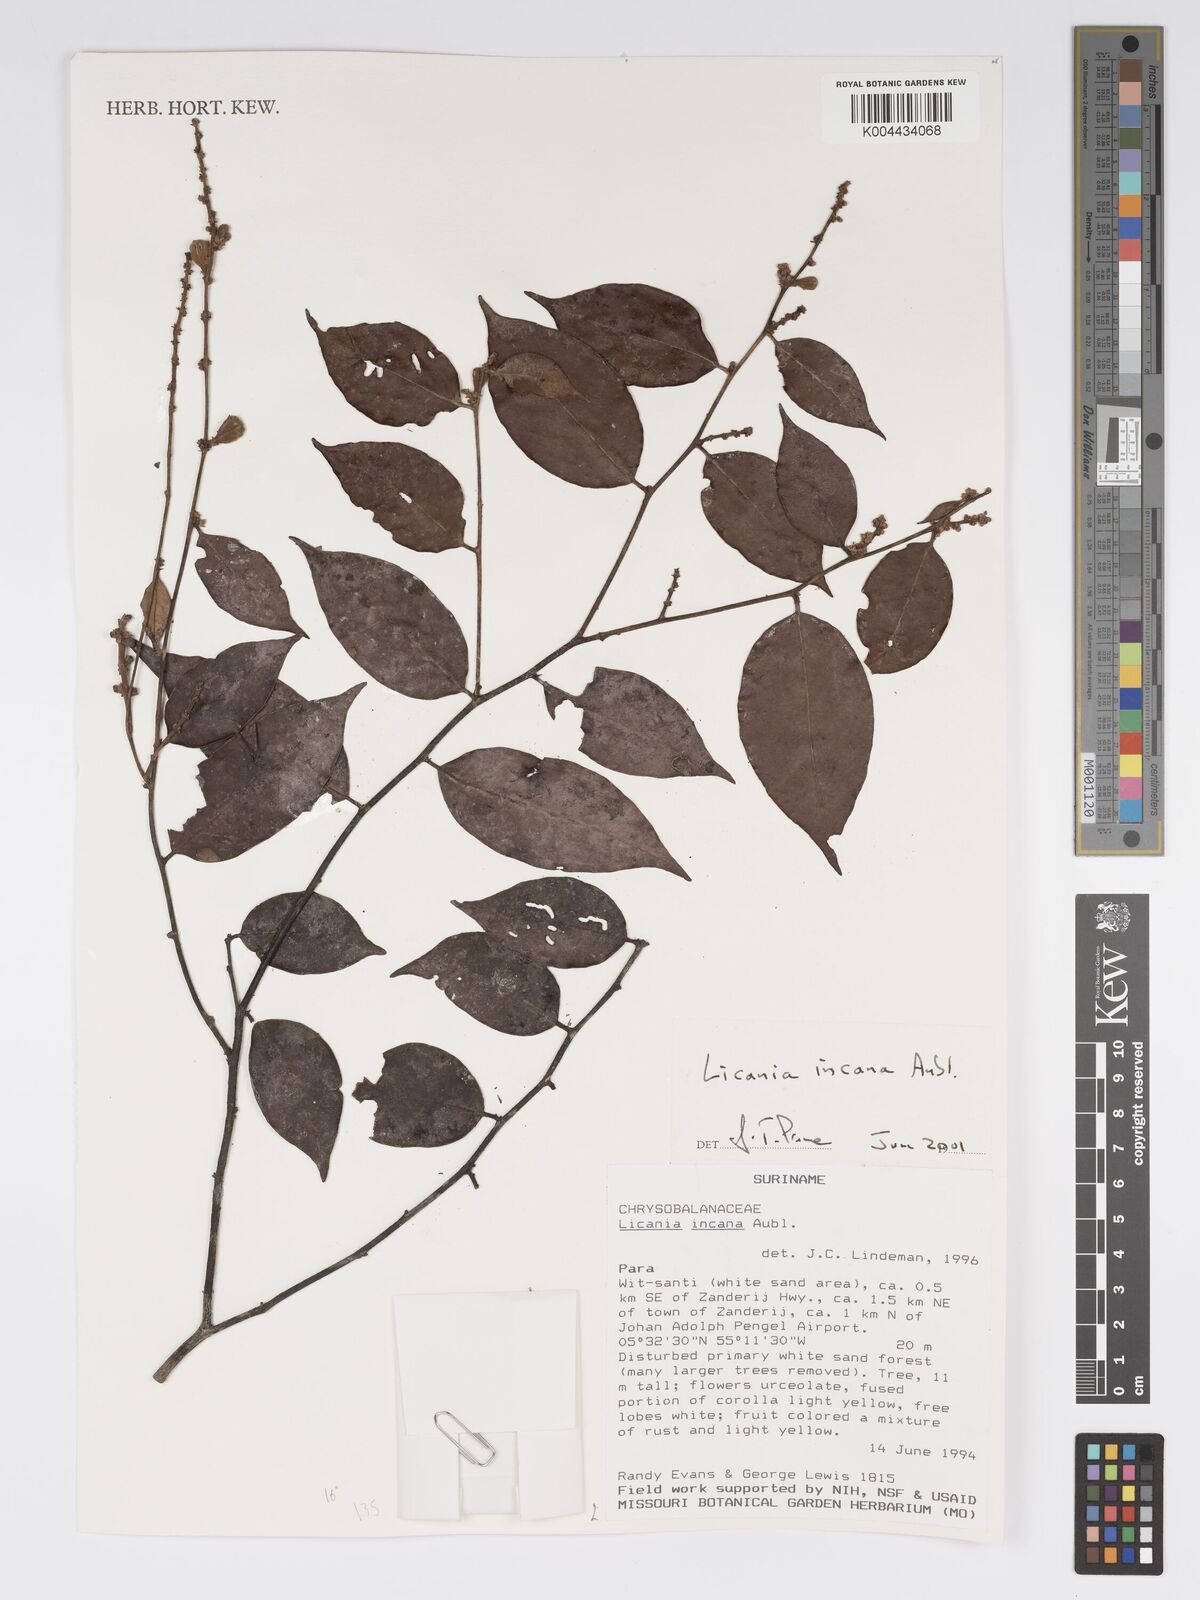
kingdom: Plantae
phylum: Tracheophyta
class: Magnoliopsida
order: Malpighiales
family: Chrysobalanaceae
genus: Licania
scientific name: Licania incana
